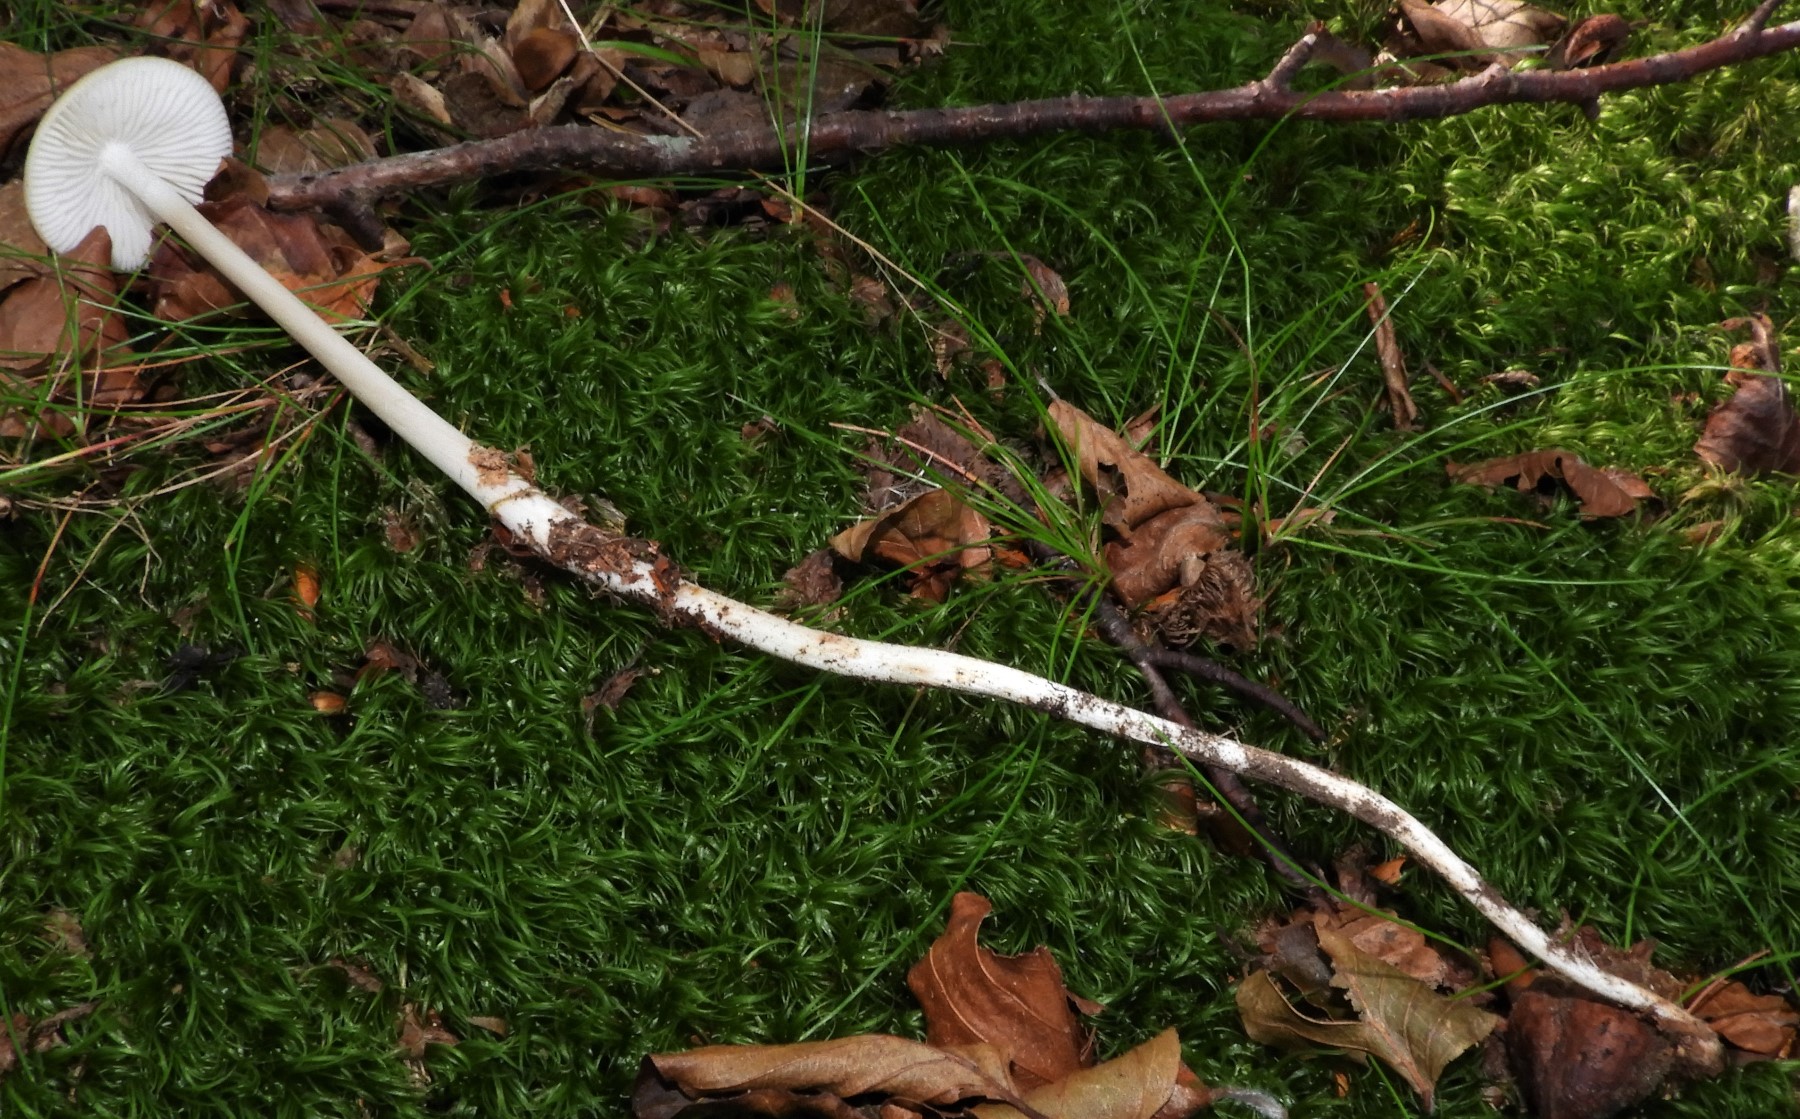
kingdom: Fungi
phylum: Basidiomycota
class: Agaricomycetes
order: Agaricales
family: Physalacriaceae
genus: Hymenopellis
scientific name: Hymenopellis radicata
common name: almindelig pælerodshat
